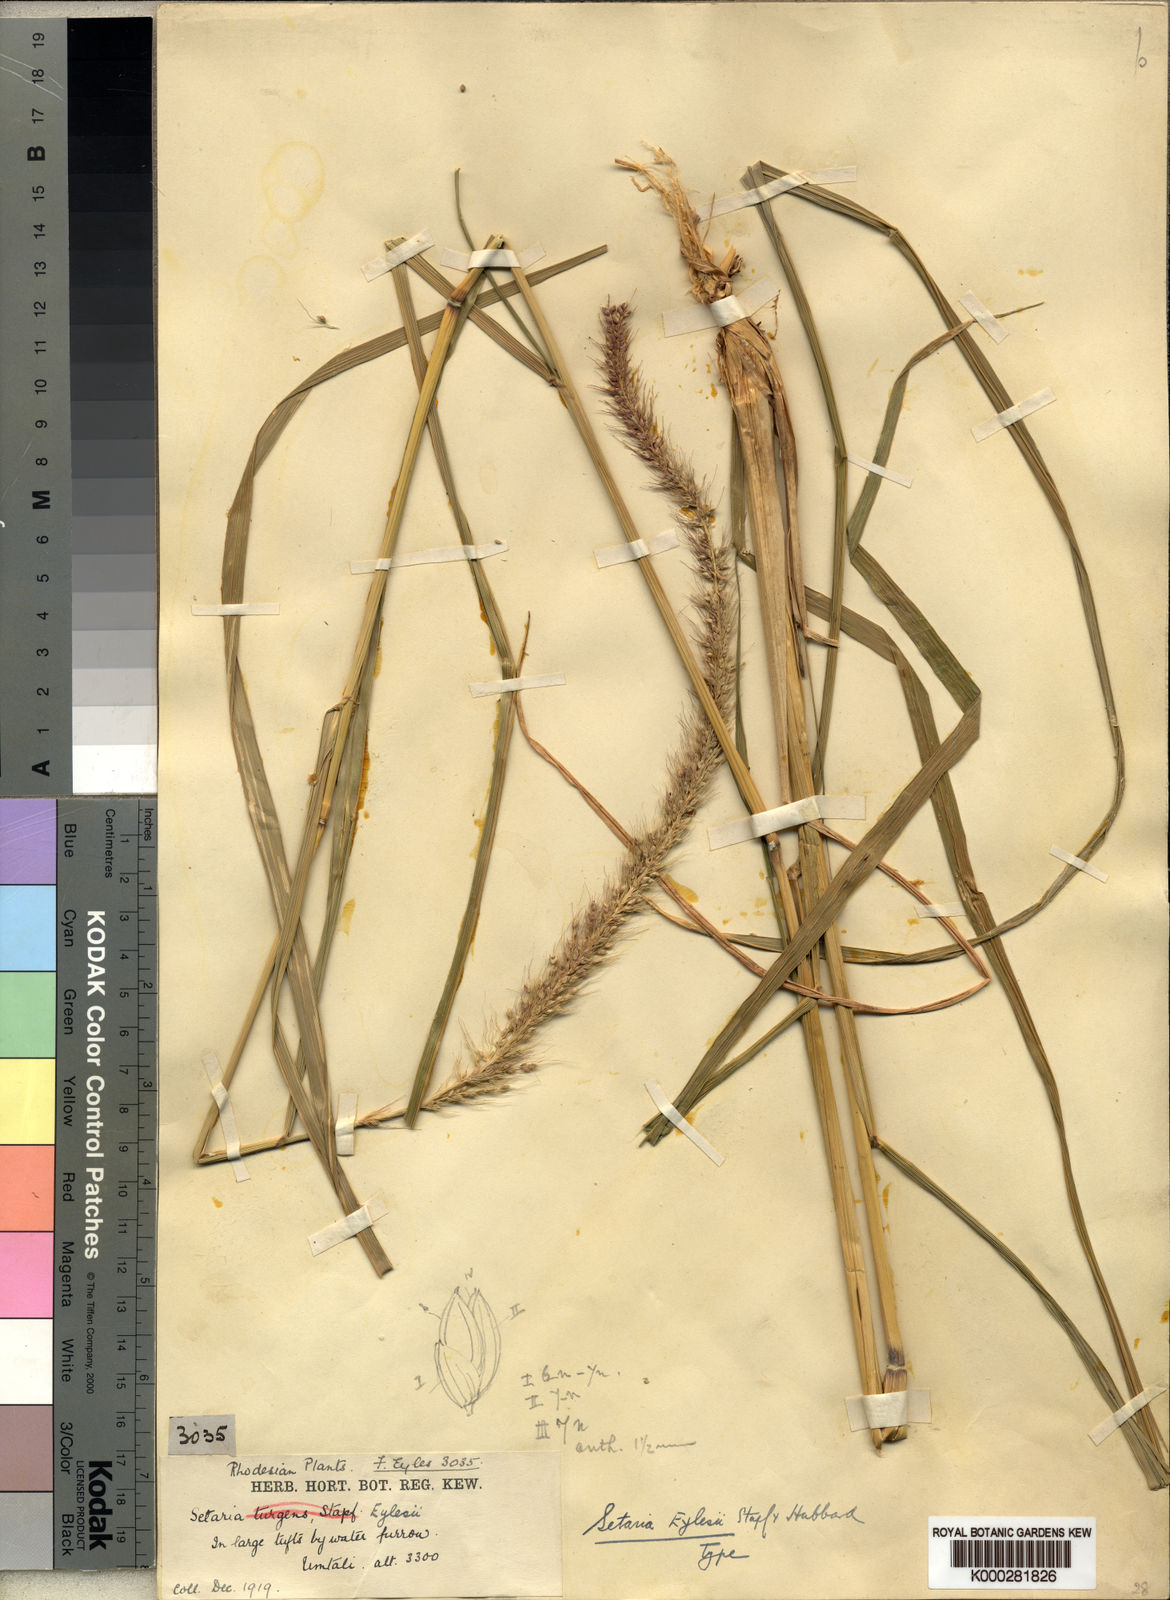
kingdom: Plantae
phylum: Tracheophyta
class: Liliopsida
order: Poales
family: Poaceae
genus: Setaria
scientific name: Setaria incrassata
